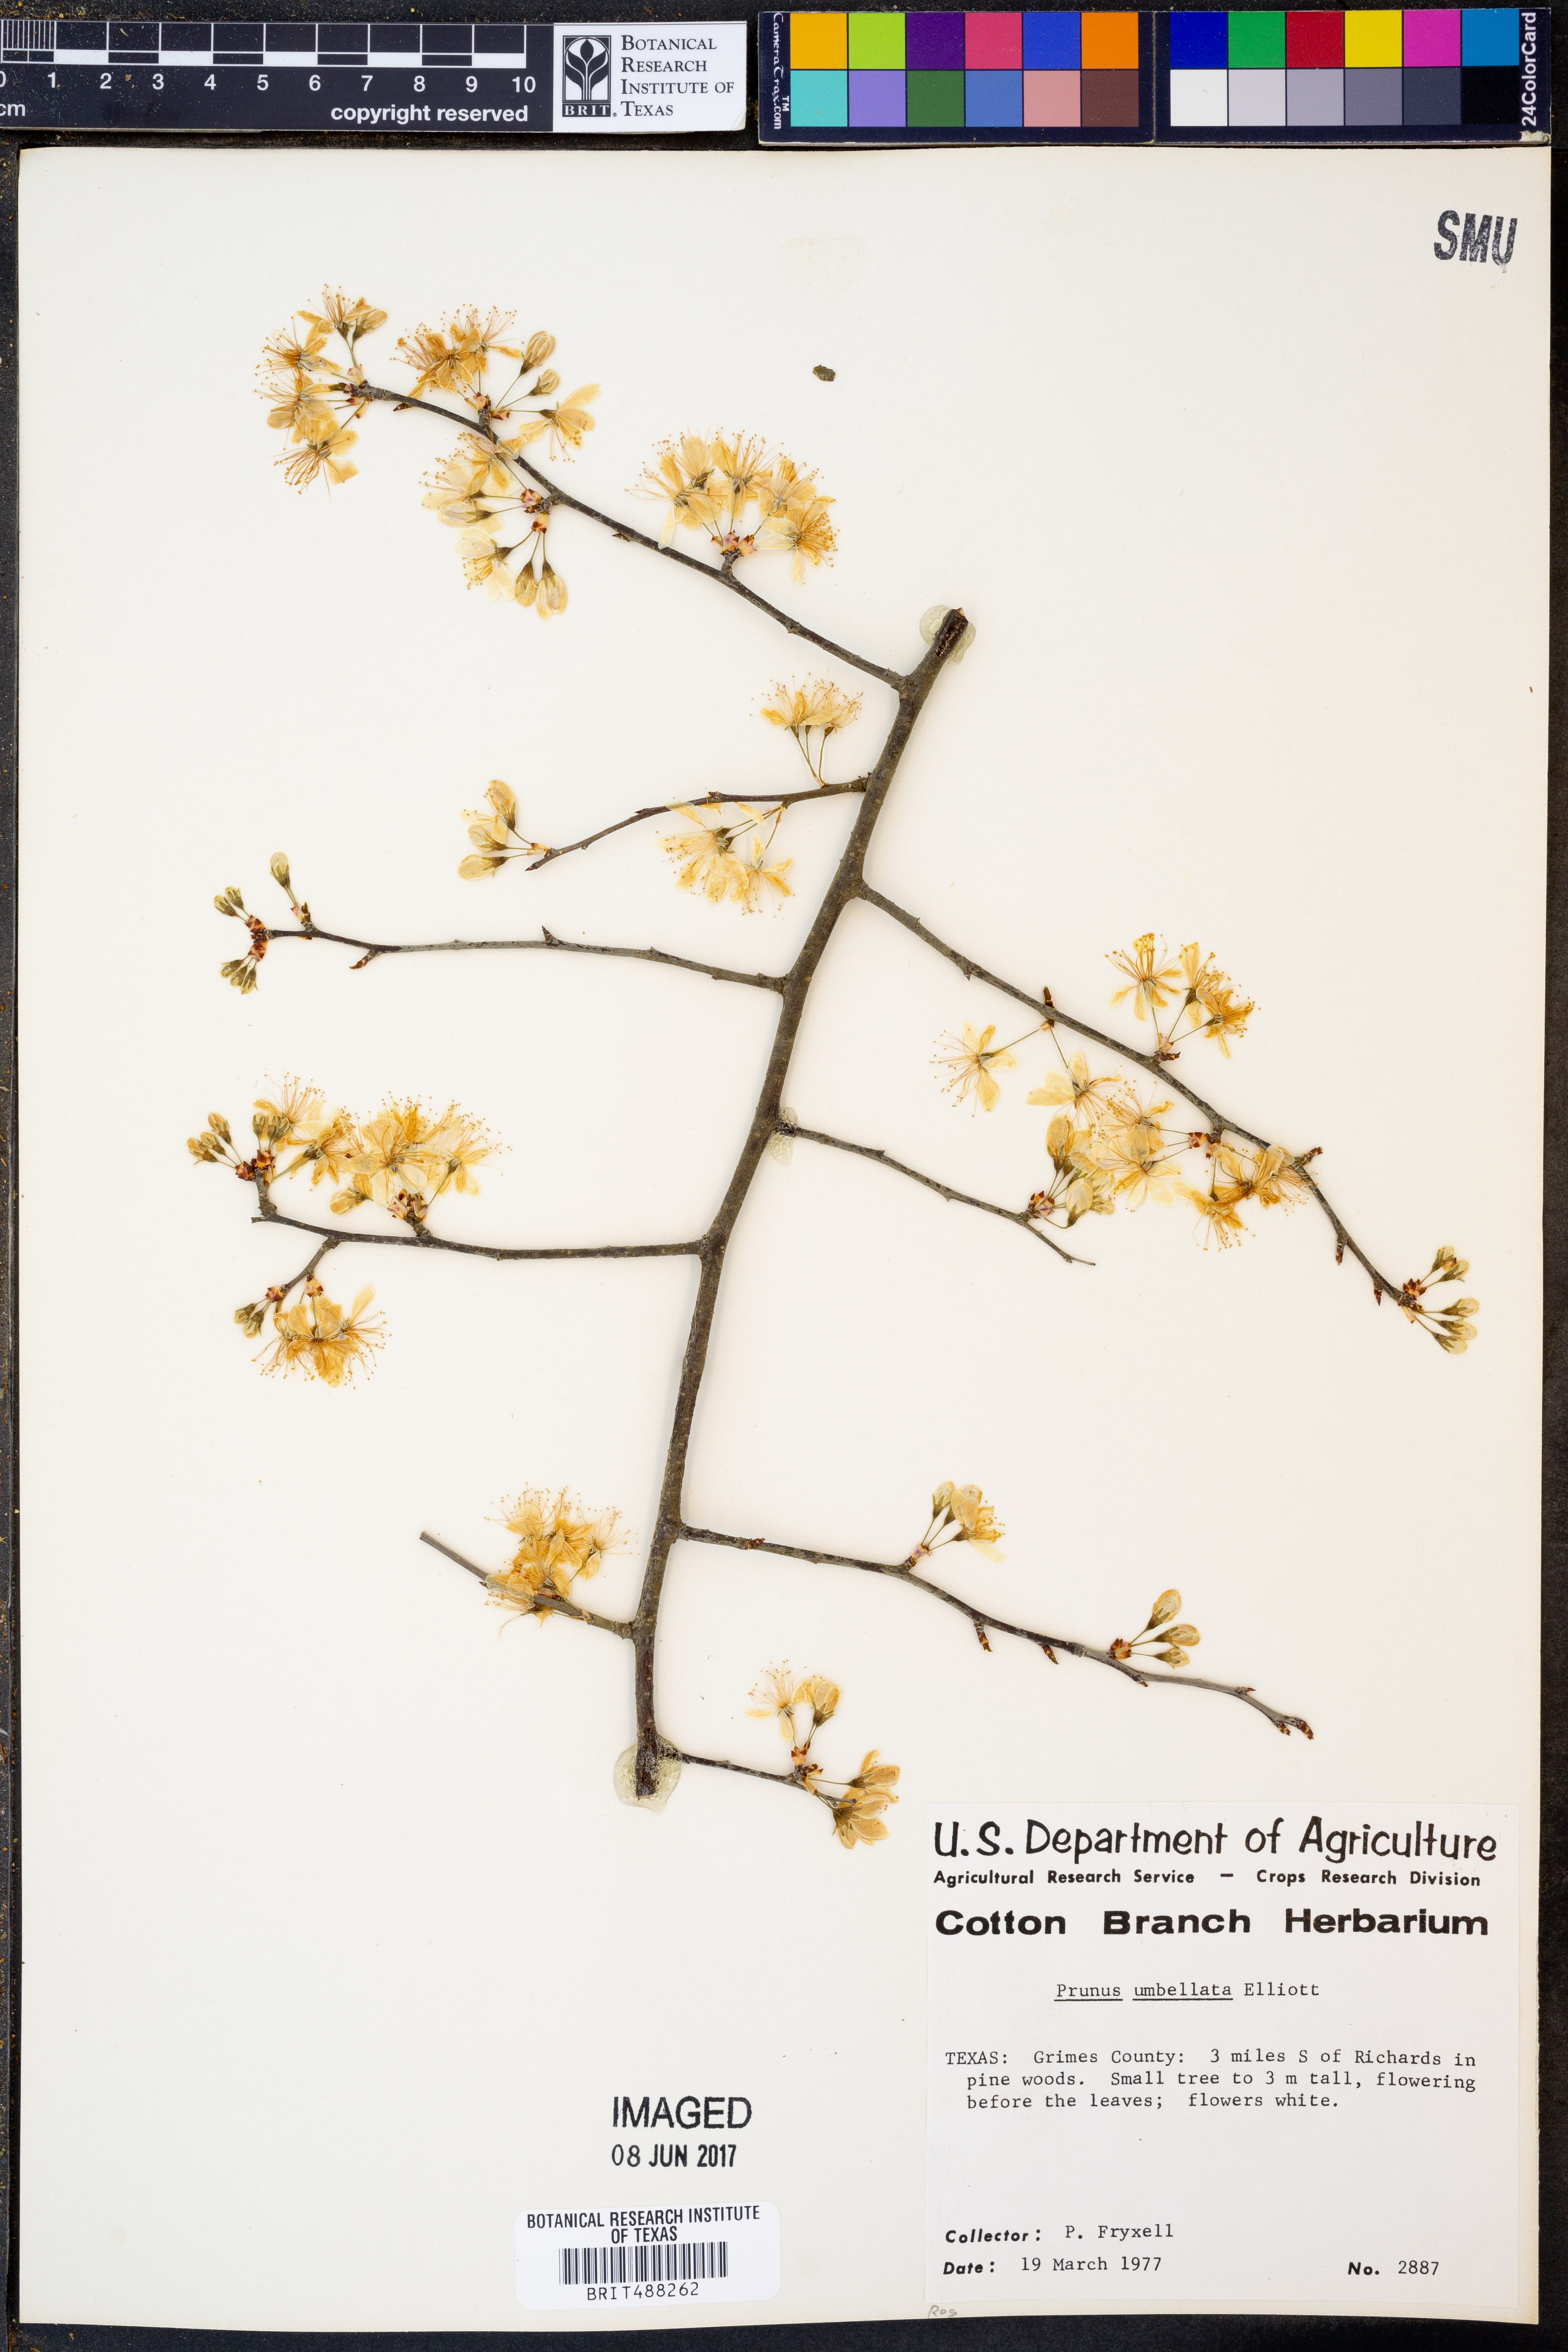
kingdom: Plantae
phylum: Tracheophyta
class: Magnoliopsida
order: Rosales
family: Rosaceae
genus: Prunus
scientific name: Prunus umbellata
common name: Allegheny plum
